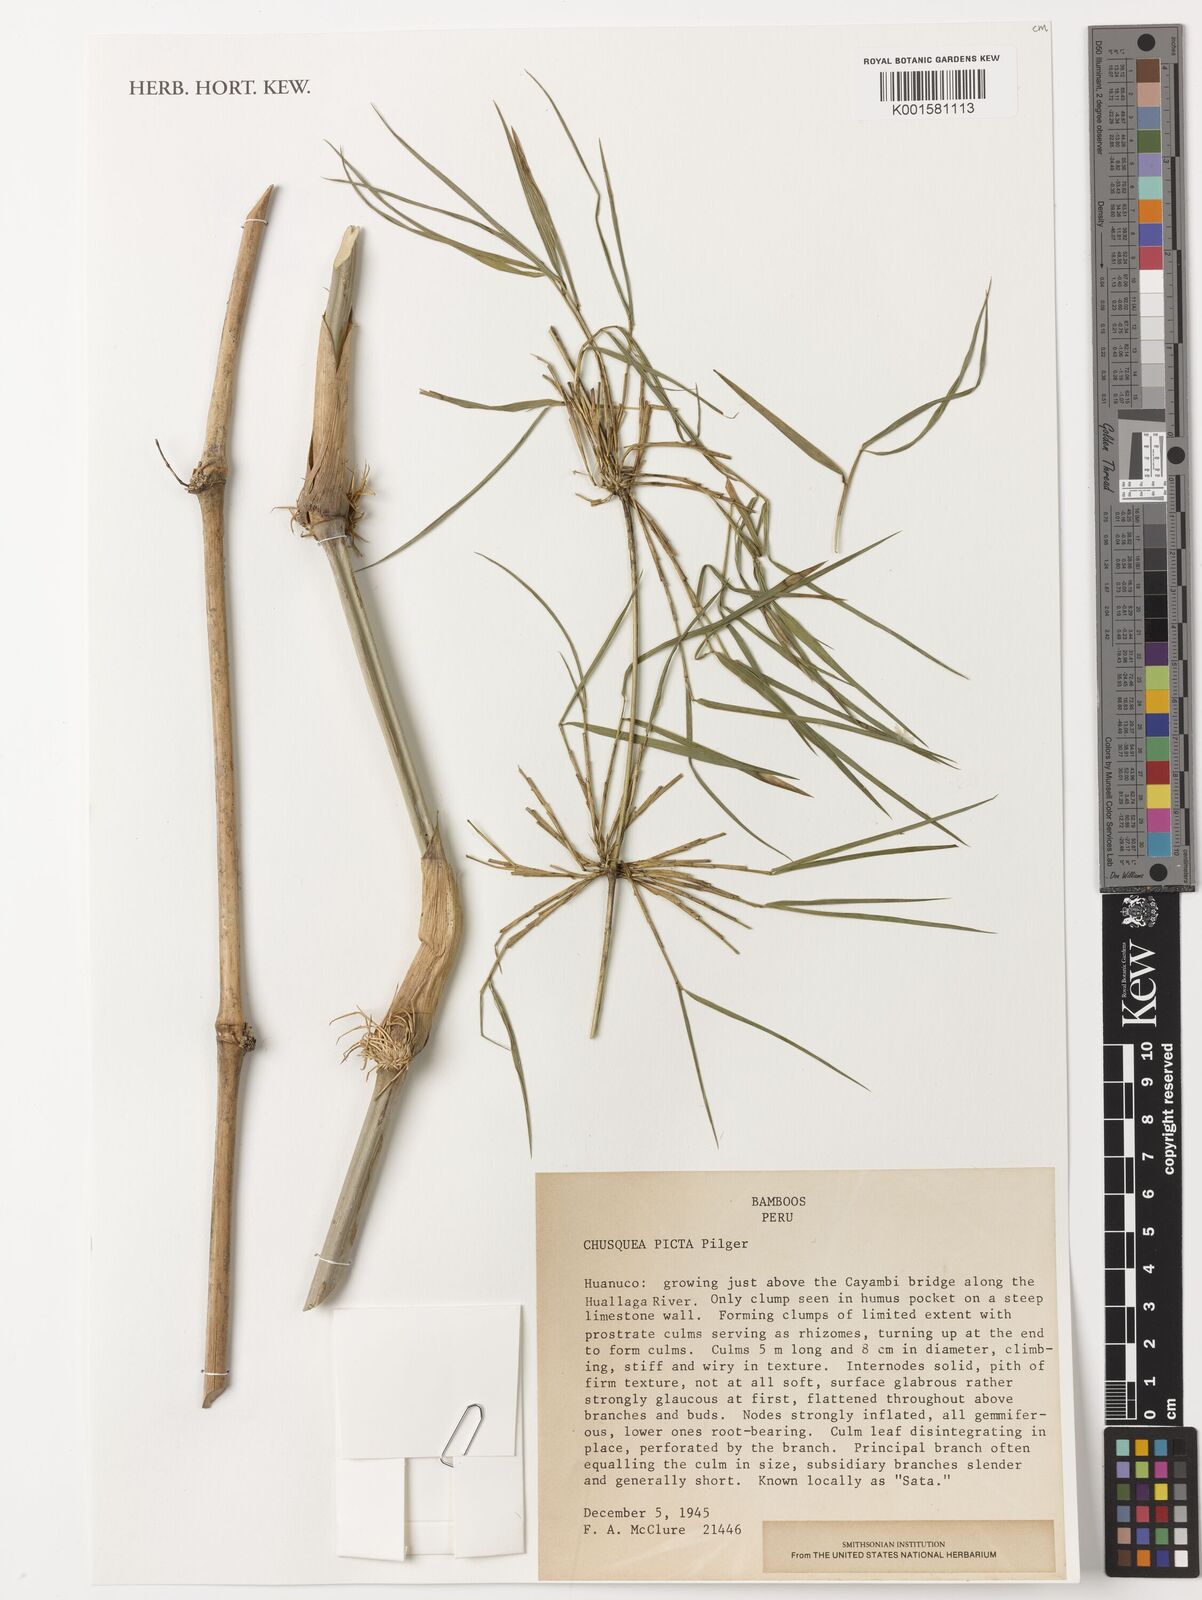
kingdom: Plantae
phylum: Tracheophyta
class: Liliopsida
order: Poales
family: Poaceae
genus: Chusquea
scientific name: Chusquea picta
